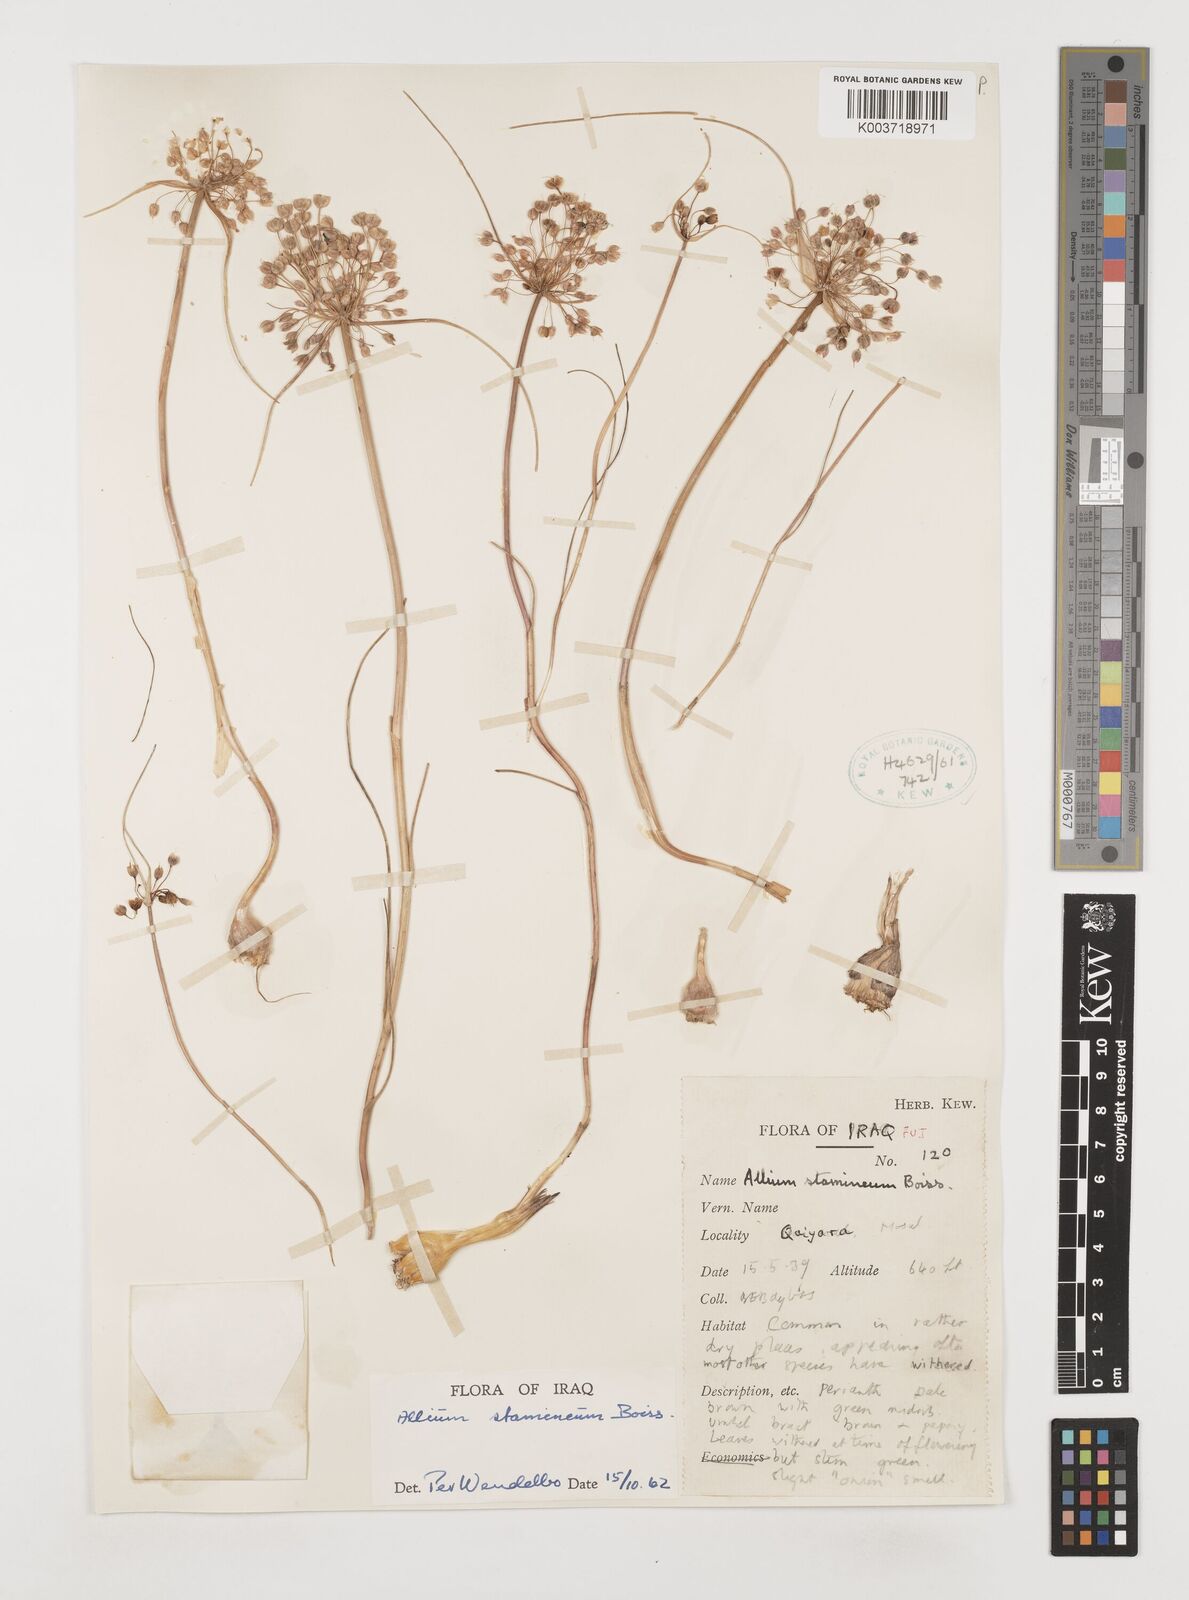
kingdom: Plantae
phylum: Tracheophyta
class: Liliopsida
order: Asparagales
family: Amaryllidaceae
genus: Allium
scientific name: Allium stamineum
